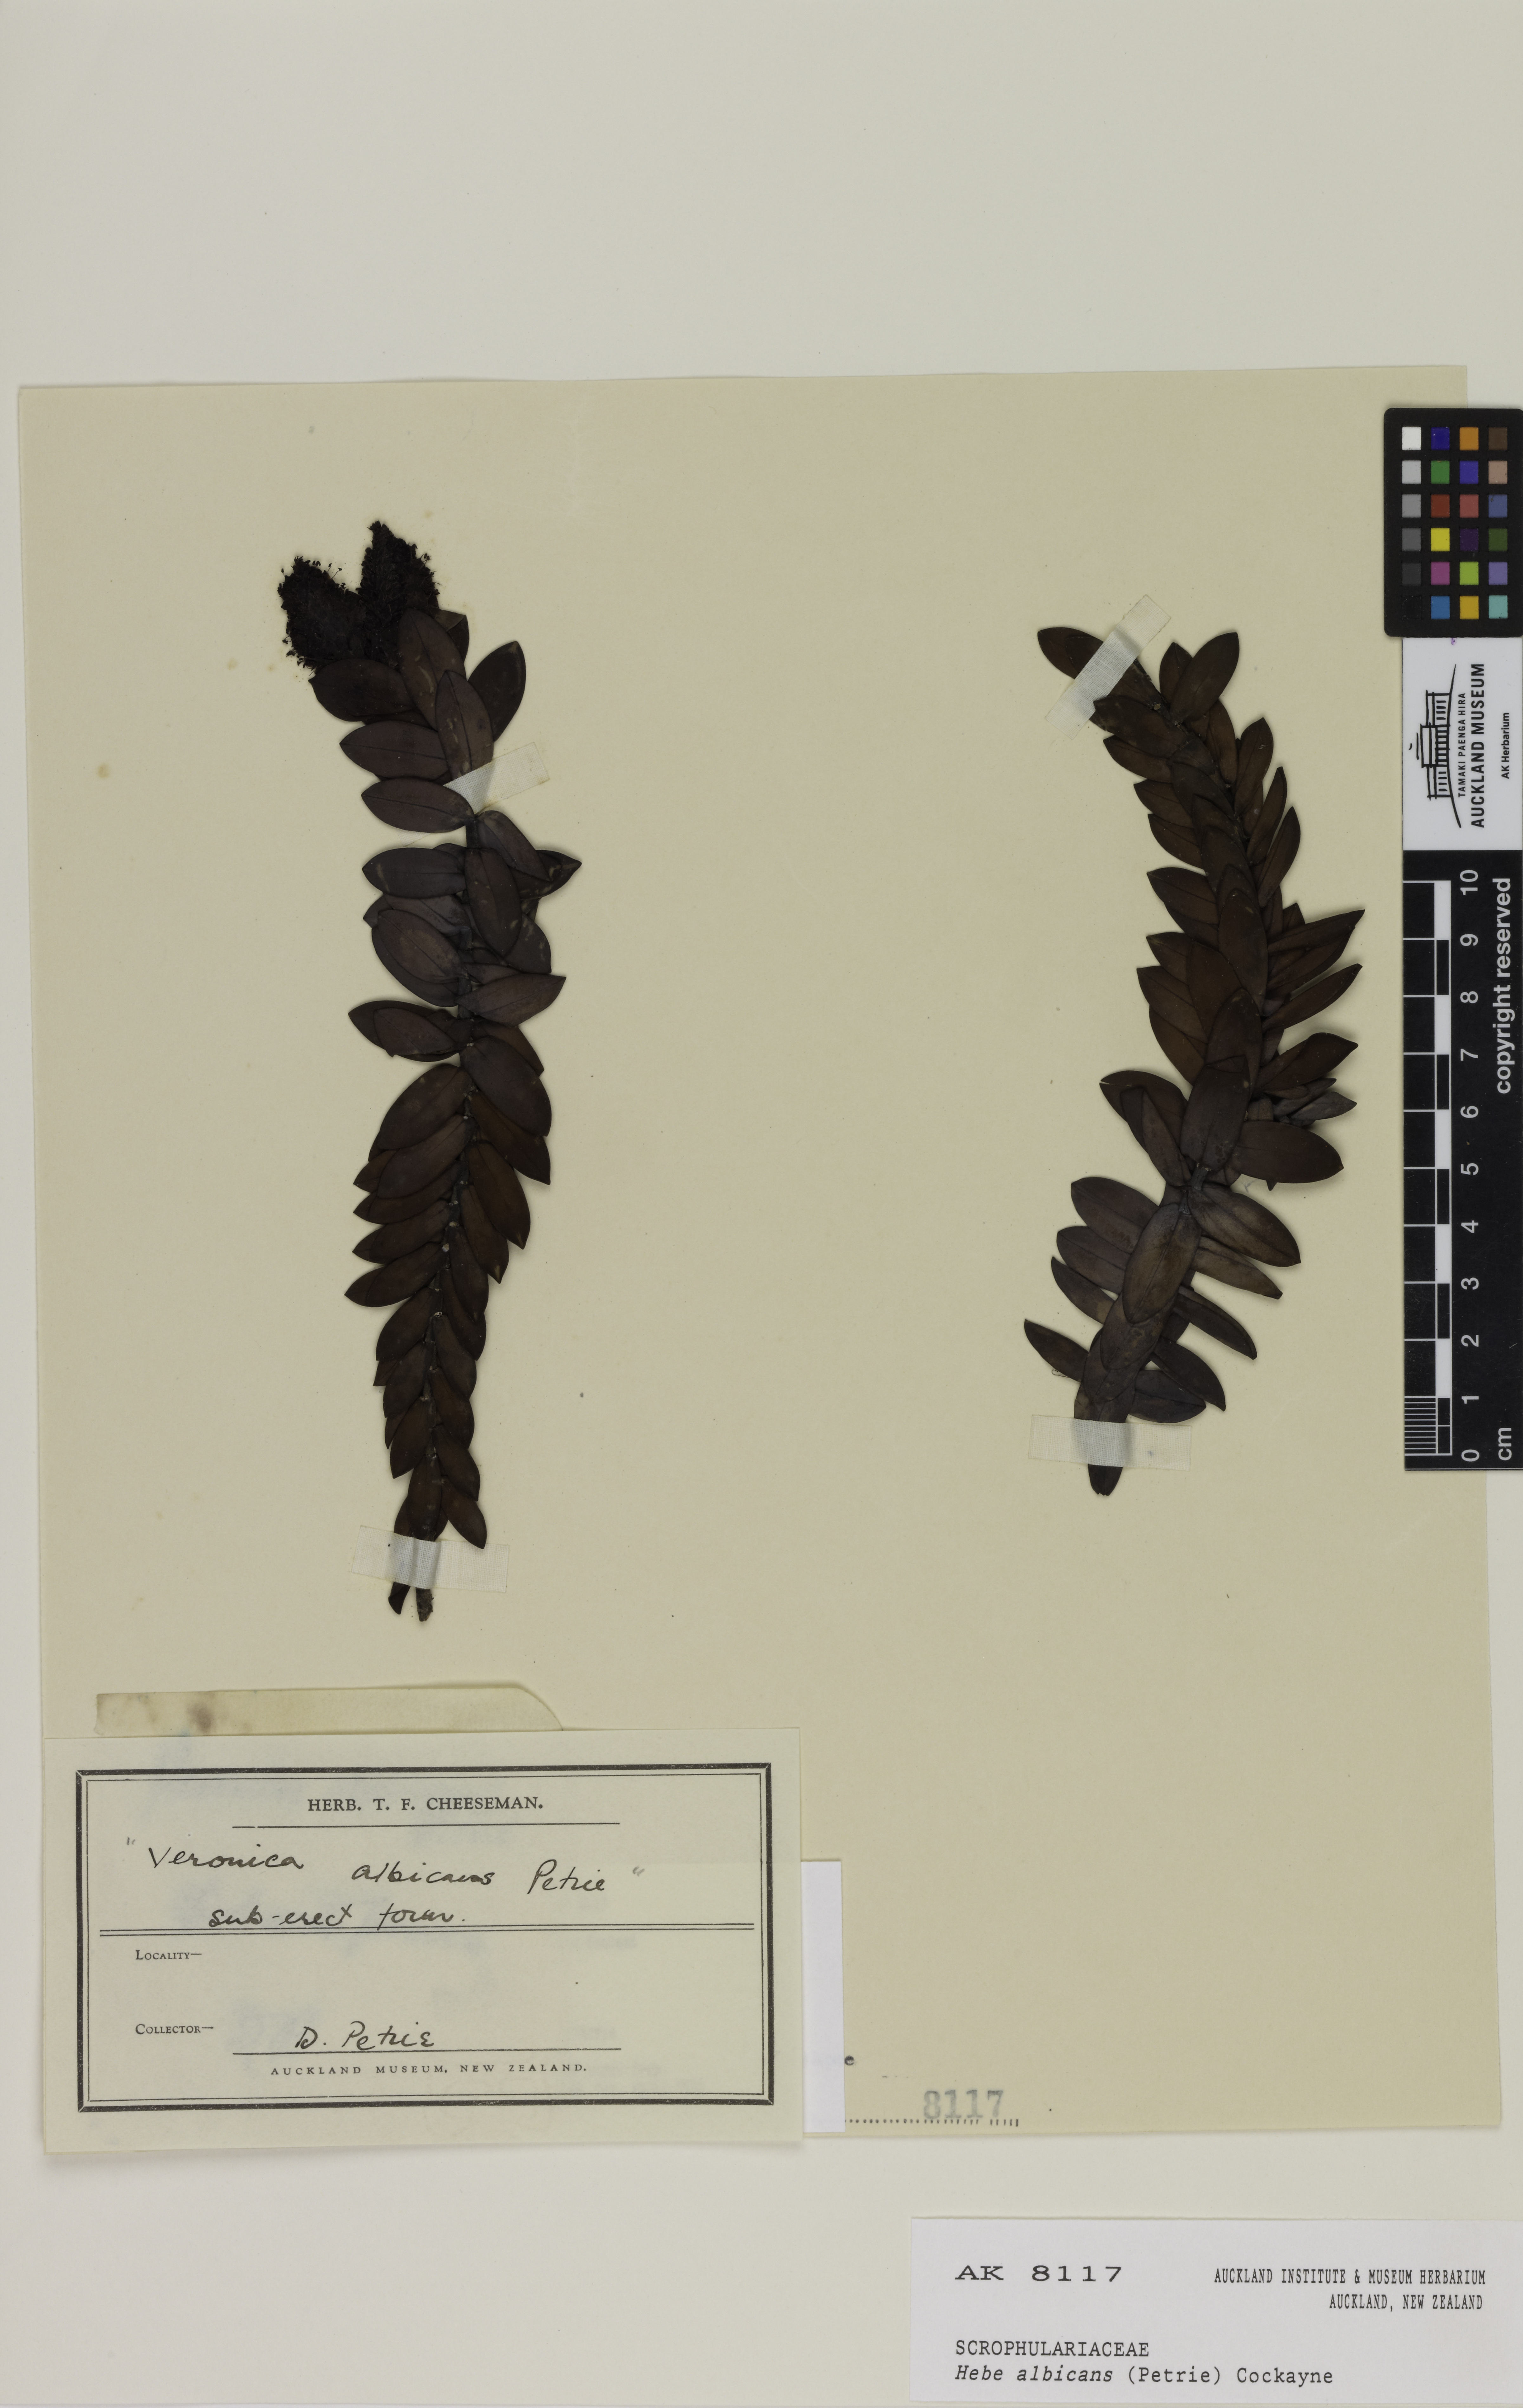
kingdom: Plantae
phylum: Tracheophyta
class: Magnoliopsida
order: Lamiales
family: Plantaginaceae
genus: Veronica
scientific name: Veronica albicans
